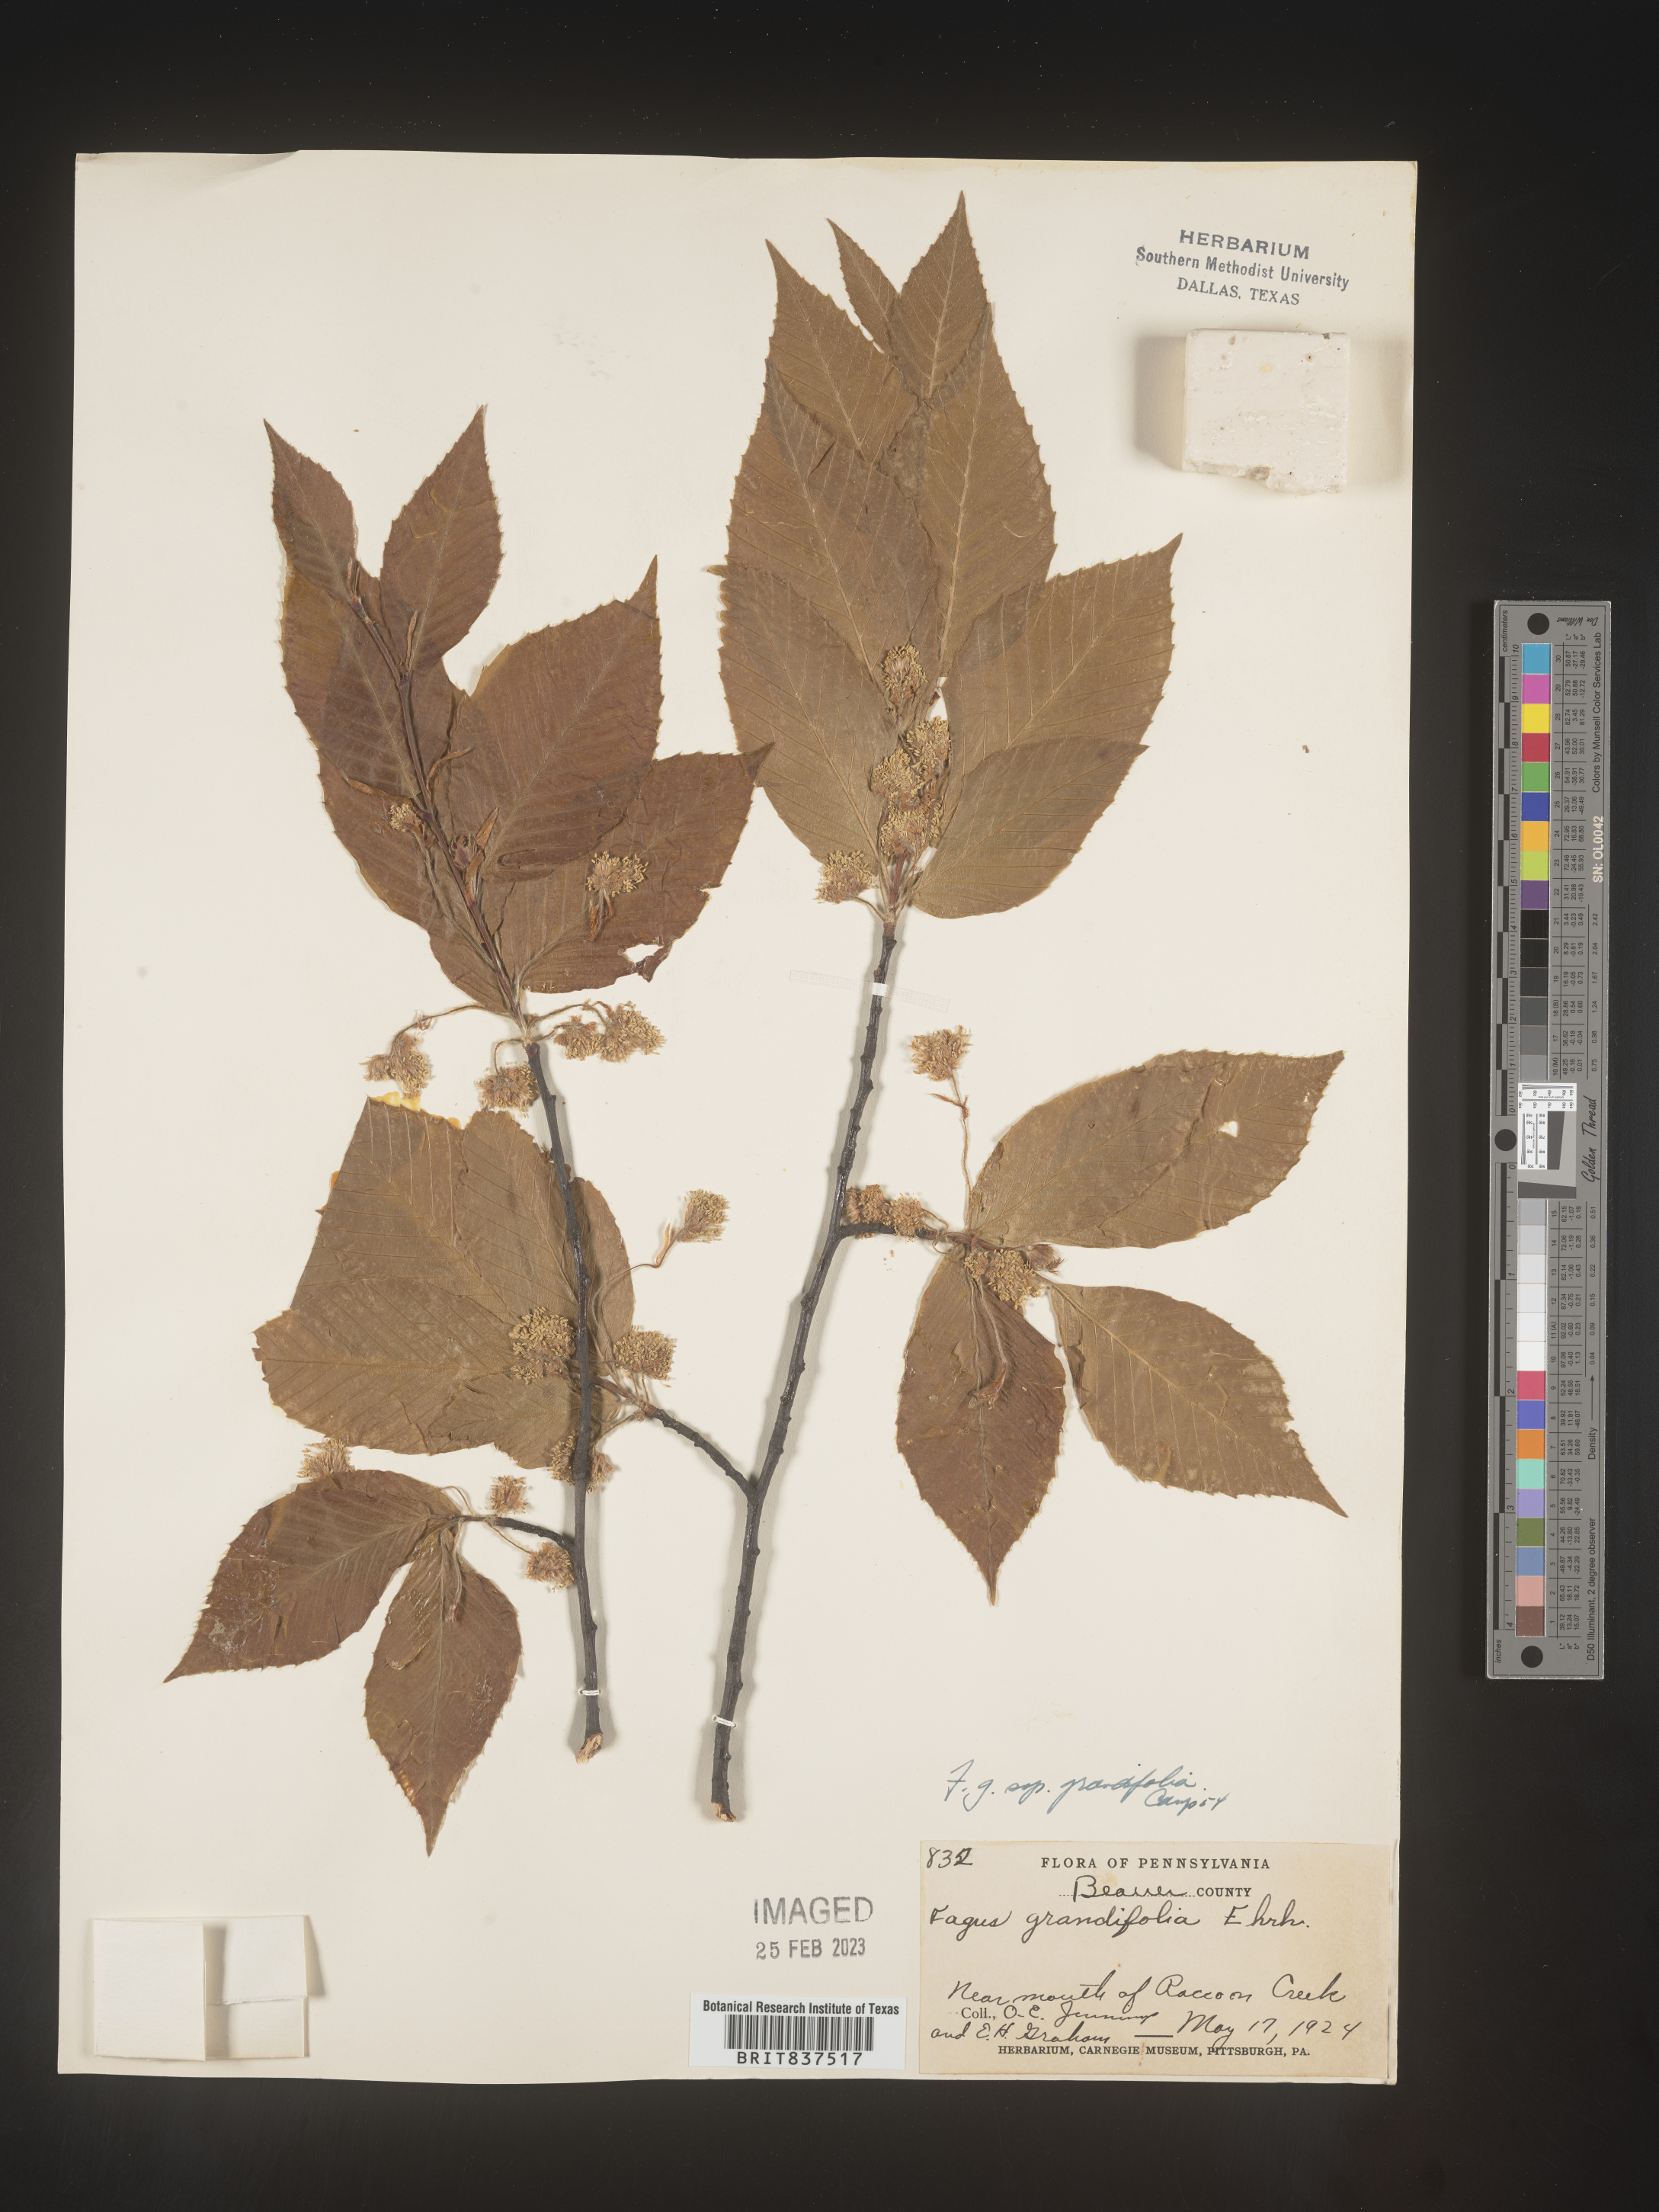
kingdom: Plantae
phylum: Tracheophyta
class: Magnoliopsida
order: Fagales
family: Fagaceae
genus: Fagus
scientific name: Fagus grandifolia
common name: American beech
